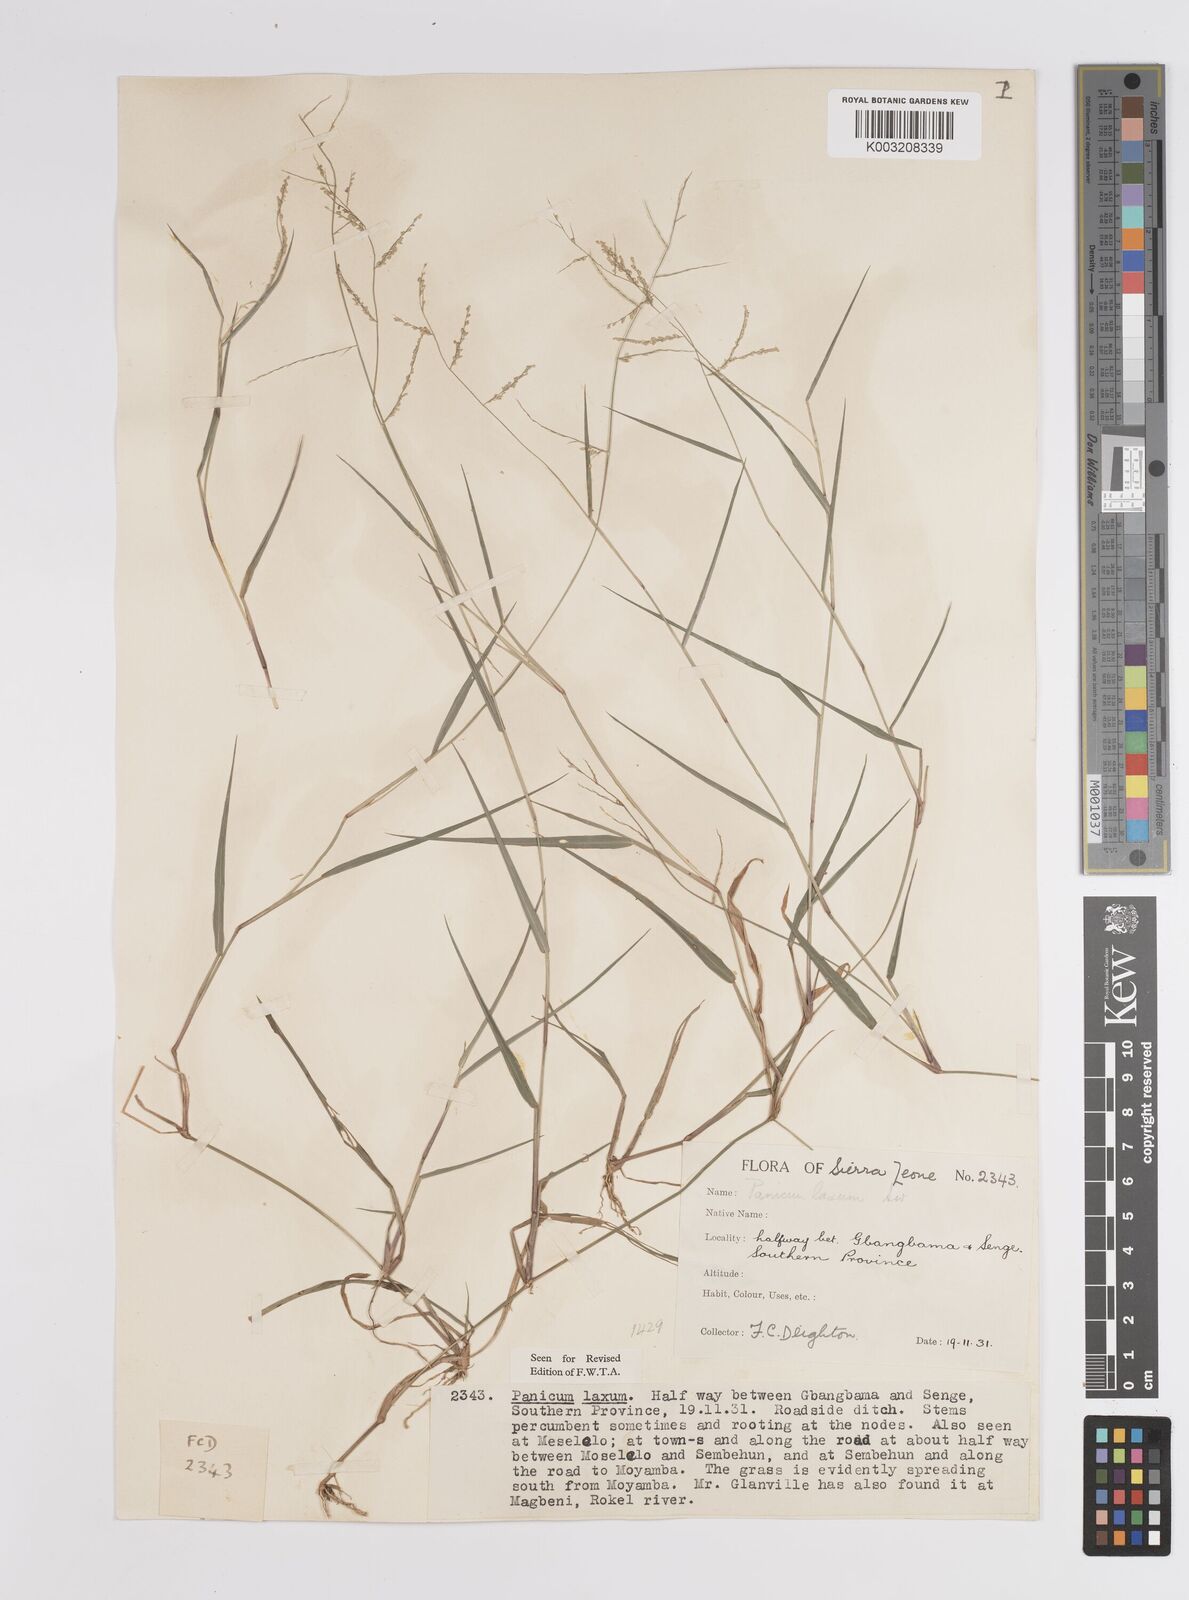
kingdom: Plantae
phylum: Tracheophyta
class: Liliopsida
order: Poales
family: Poaceae
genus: Steinchisma
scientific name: Steinchisma laxum
